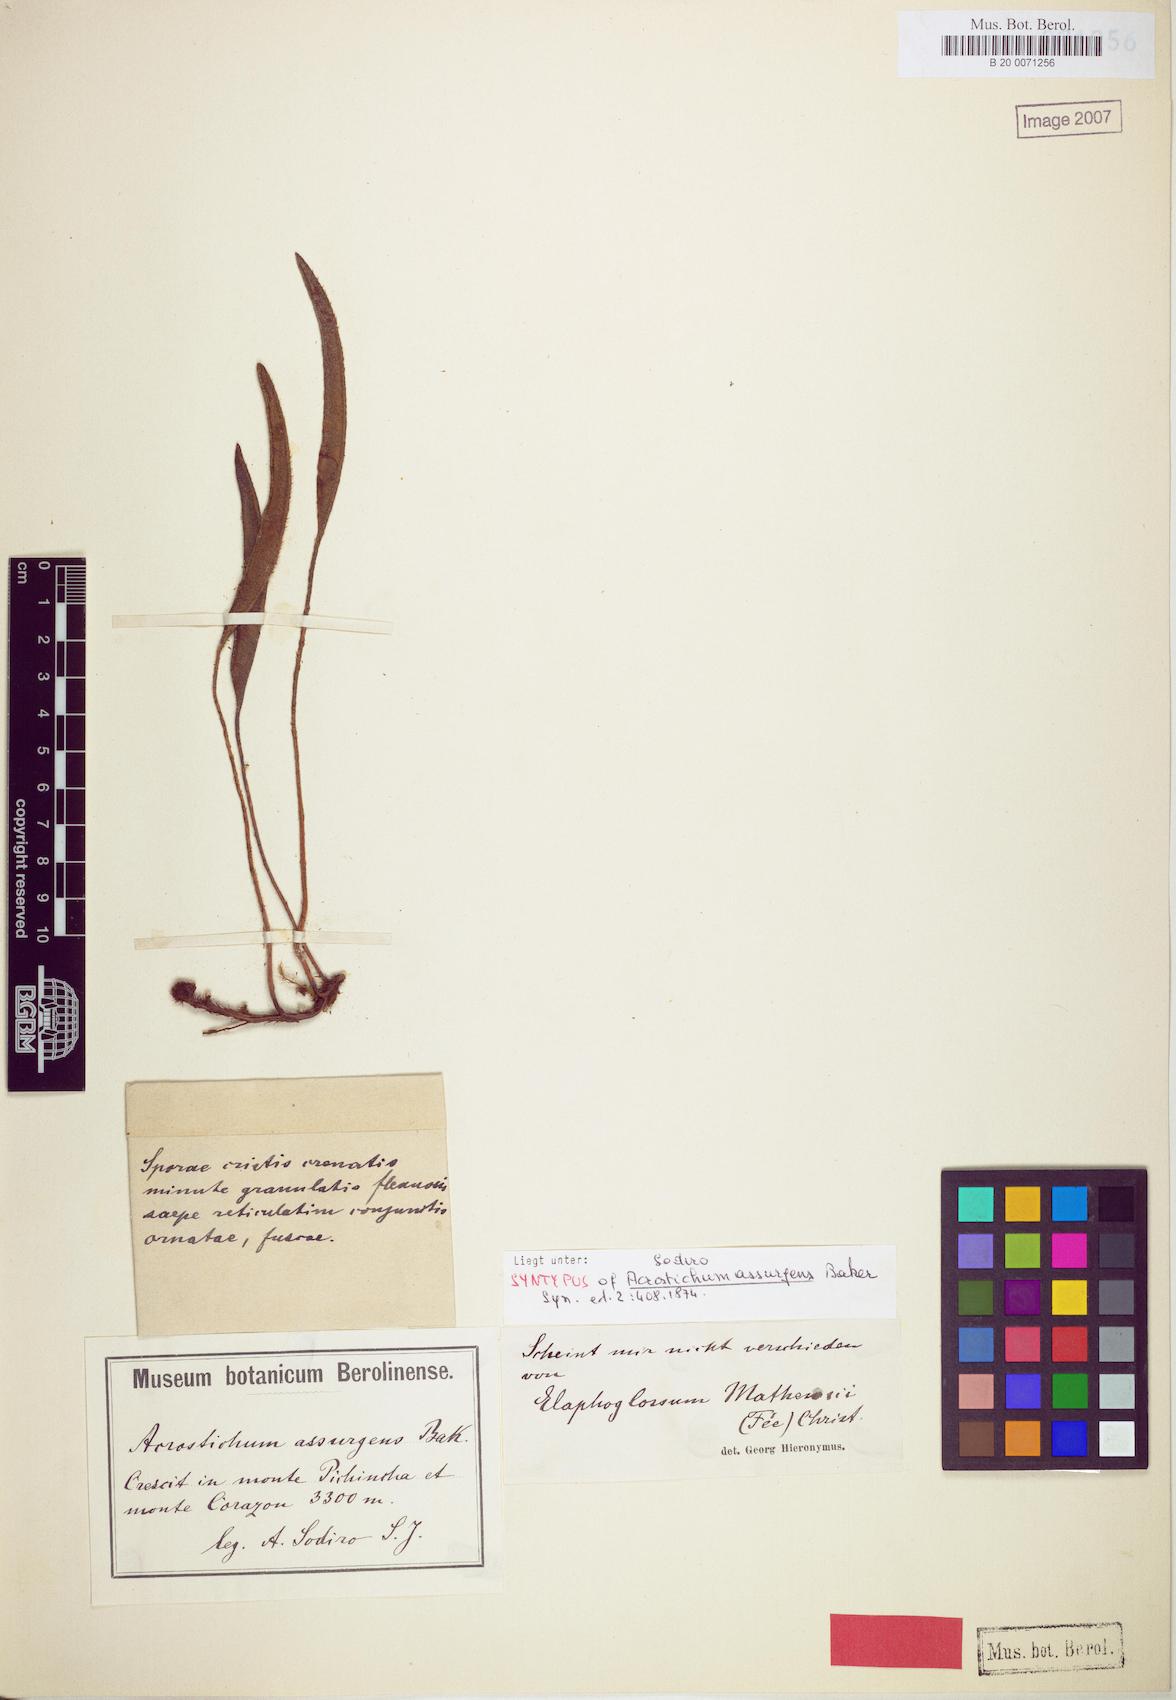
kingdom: Plantae
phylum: Tracheophyta
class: Polypodiopsida
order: Polypodiales
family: Dryopteridaceae
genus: Elaphoglossum
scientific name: Elaphoglossum mathewsii
